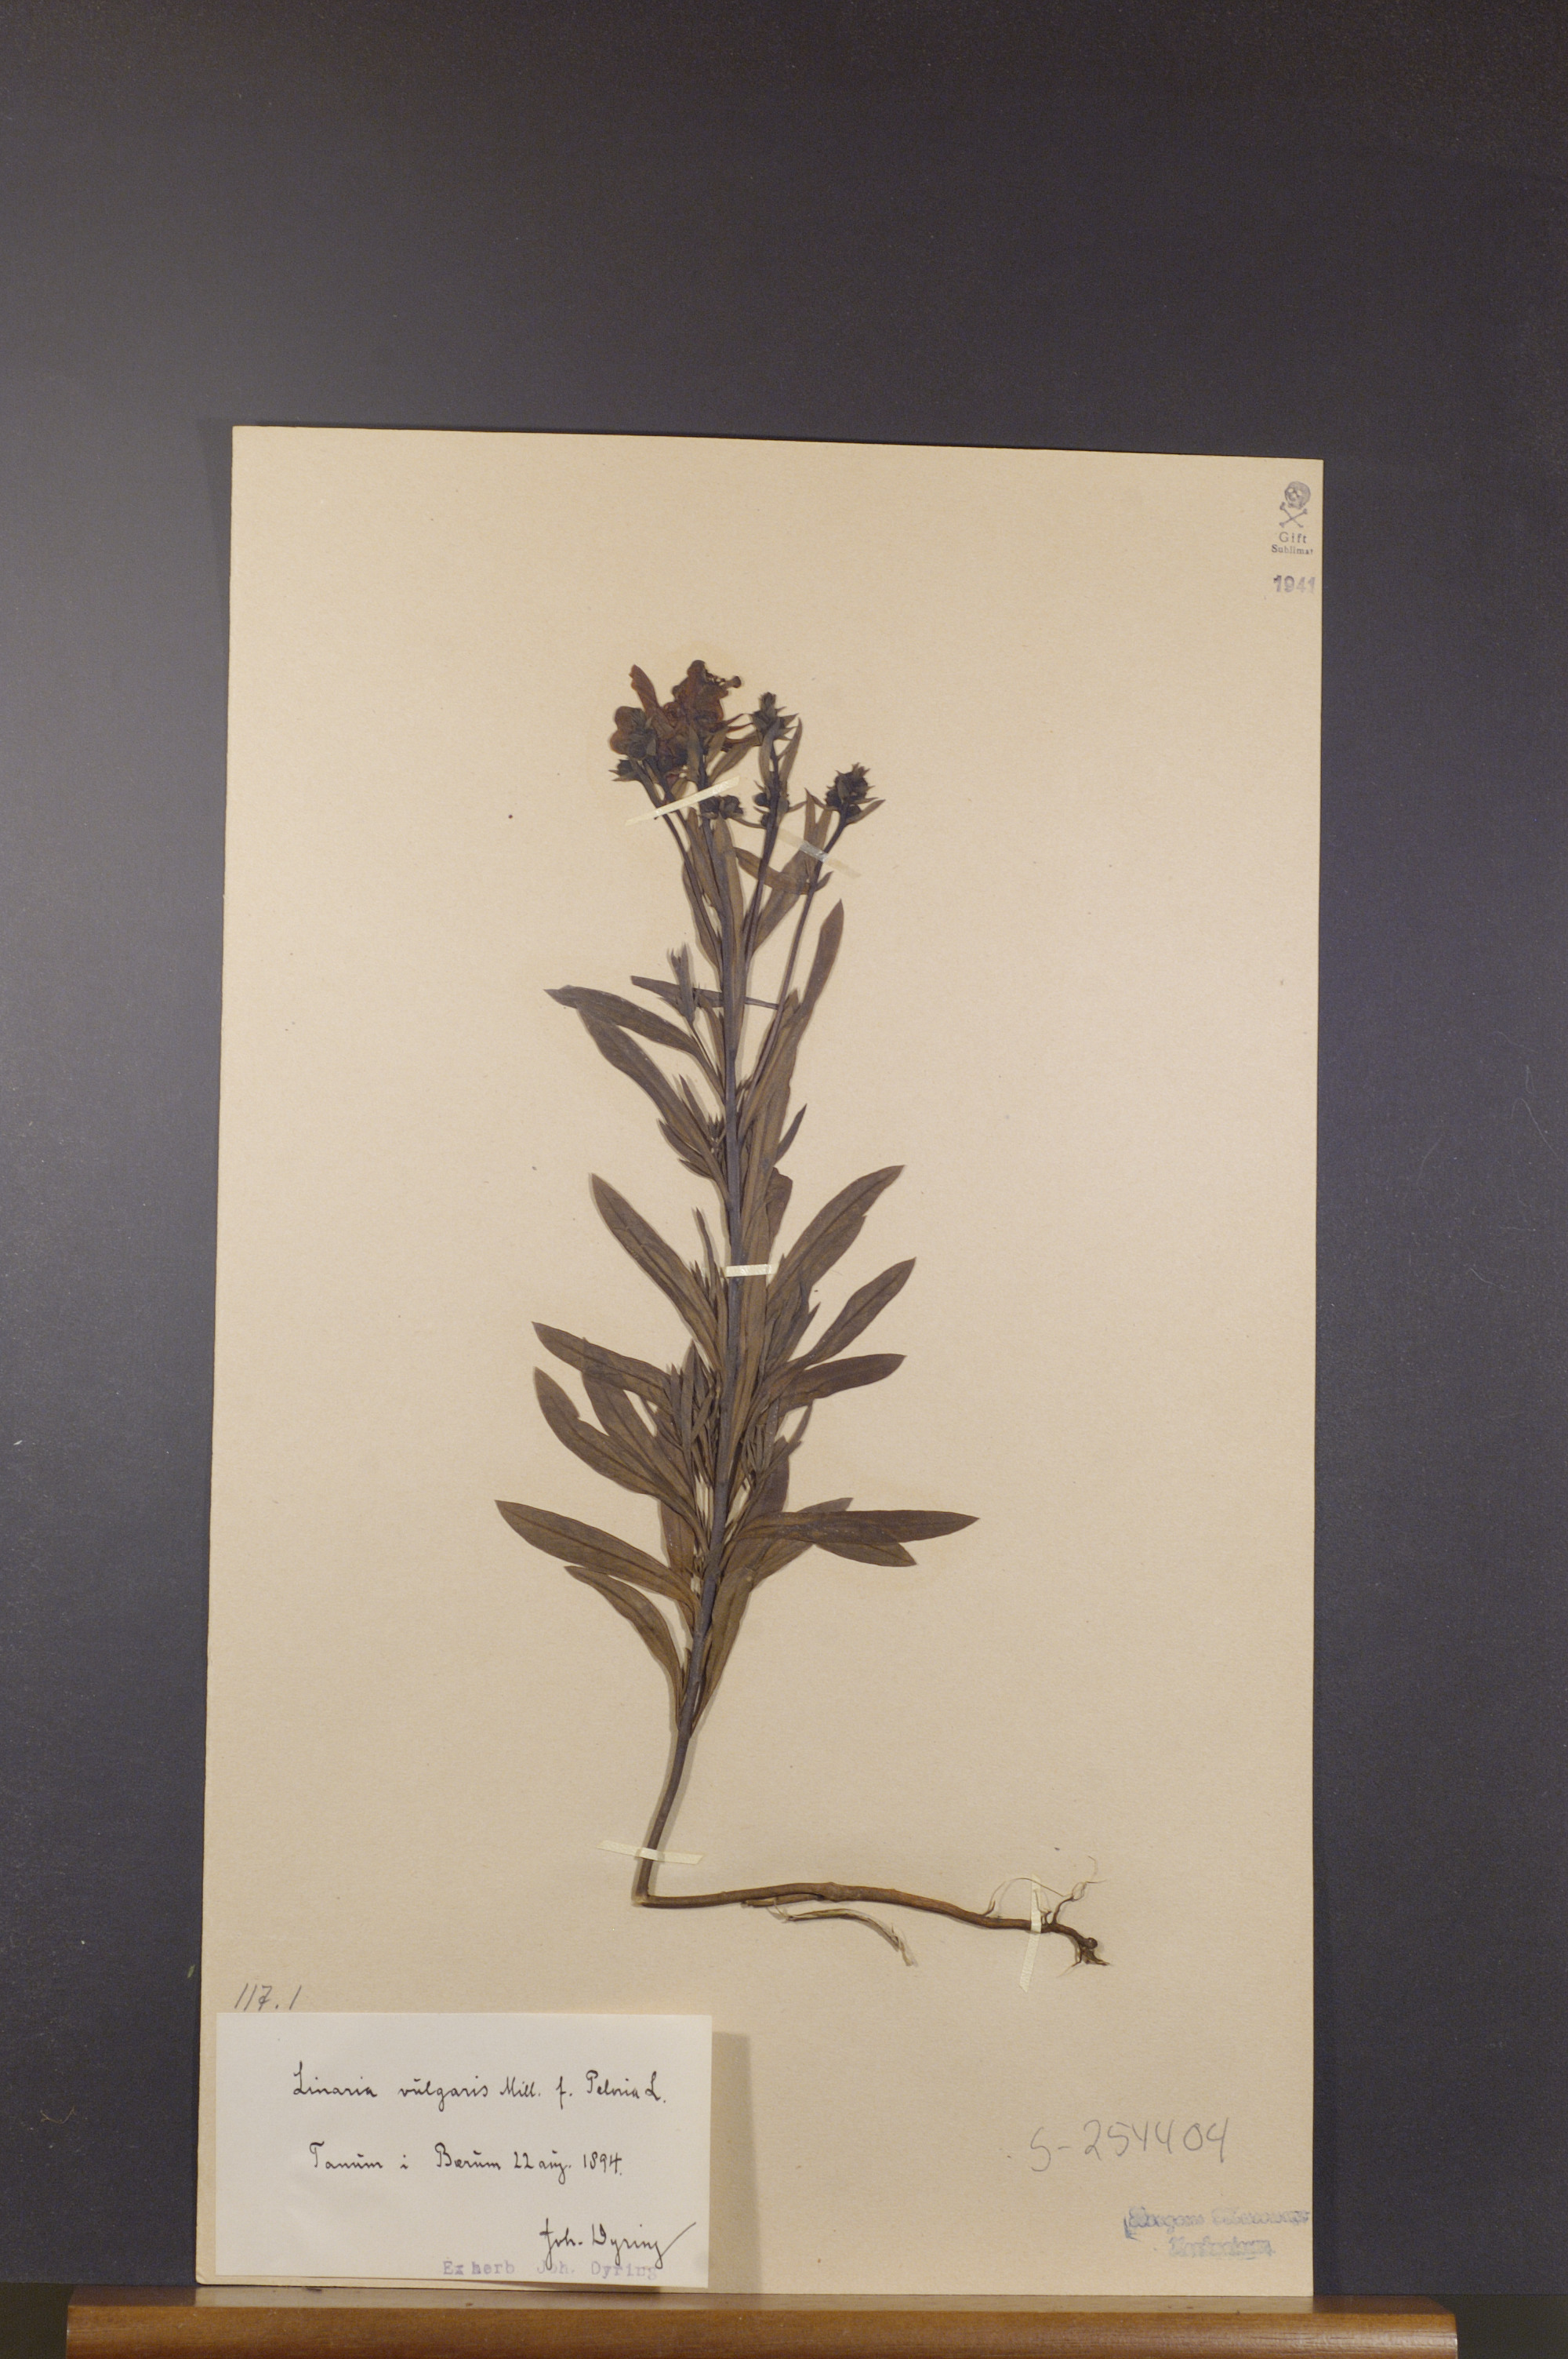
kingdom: Plantae
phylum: Tracheophyta
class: Magnoliopsida
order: Lamiales
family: Plantaginaceae
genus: Linaria
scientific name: Linaria vulgaris
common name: Butter and eggs
